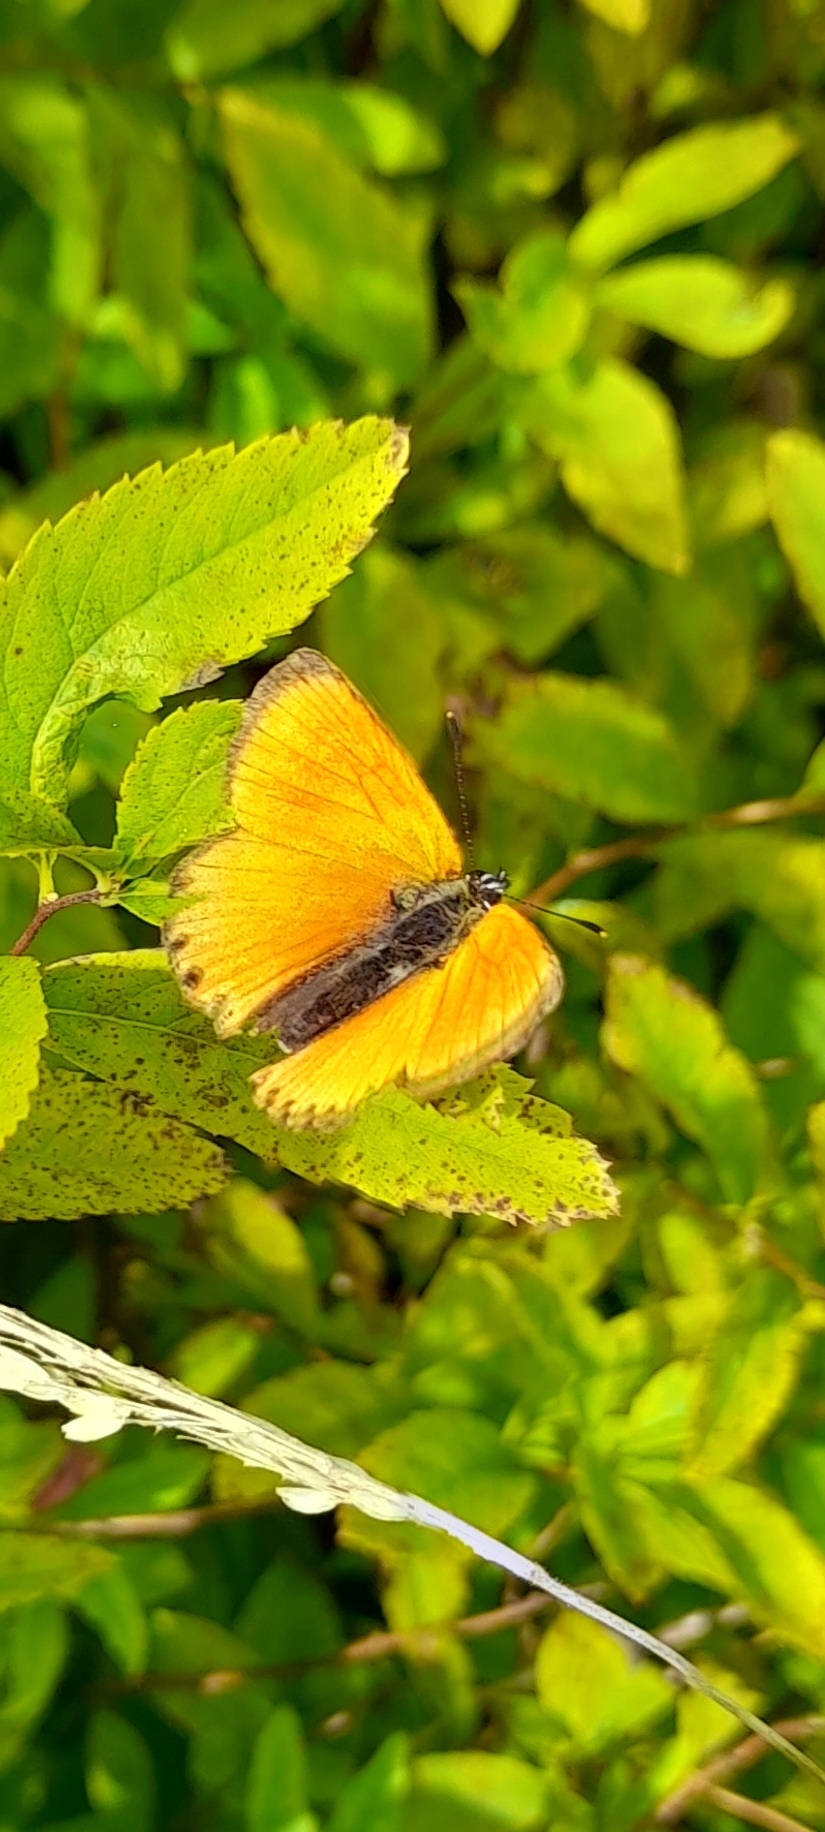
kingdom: Animalia
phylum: Arthropoda
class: Insecta
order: Lepidoptera
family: Lycaenidae
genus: Lycaena
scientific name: Lycaena virgaureae
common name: Dukatsommerfugl
